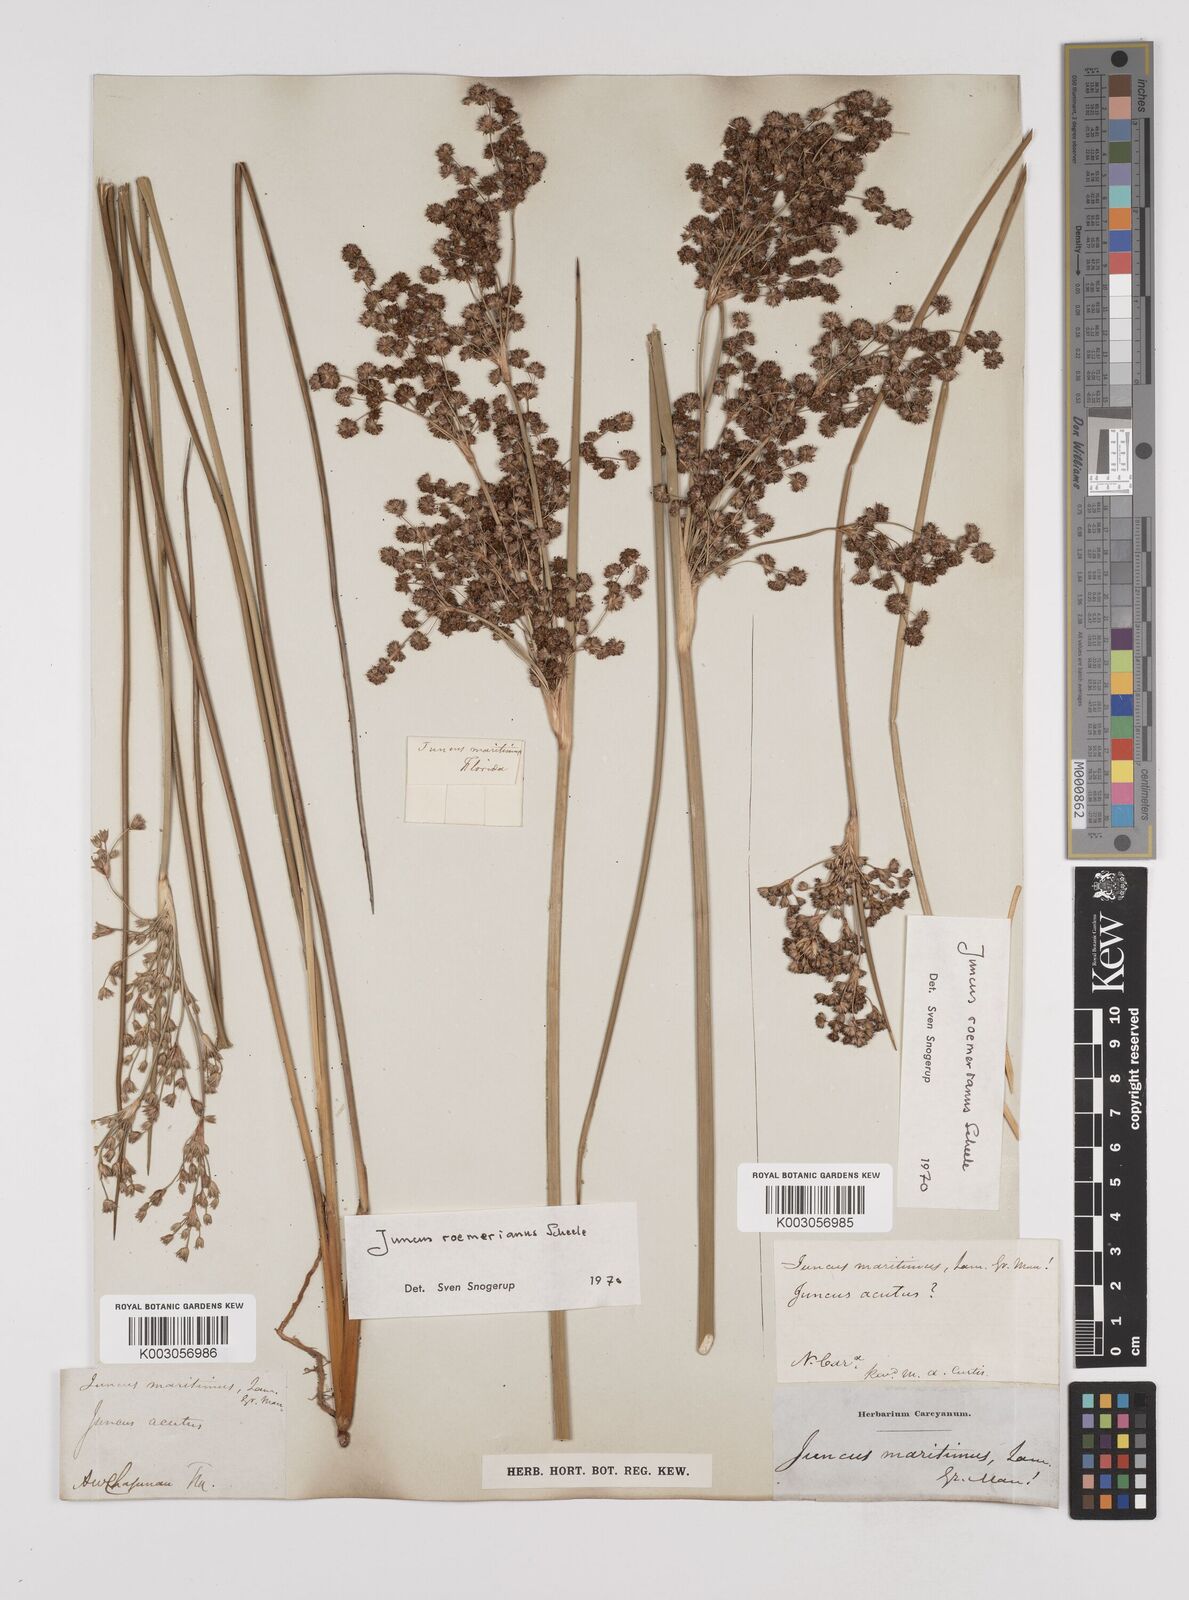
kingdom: Plantae
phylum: Tracheophyta
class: Liliopsida
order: Poales
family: Juncaceae
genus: Juncus
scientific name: Juncus roemerianus
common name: Roemer's rush
